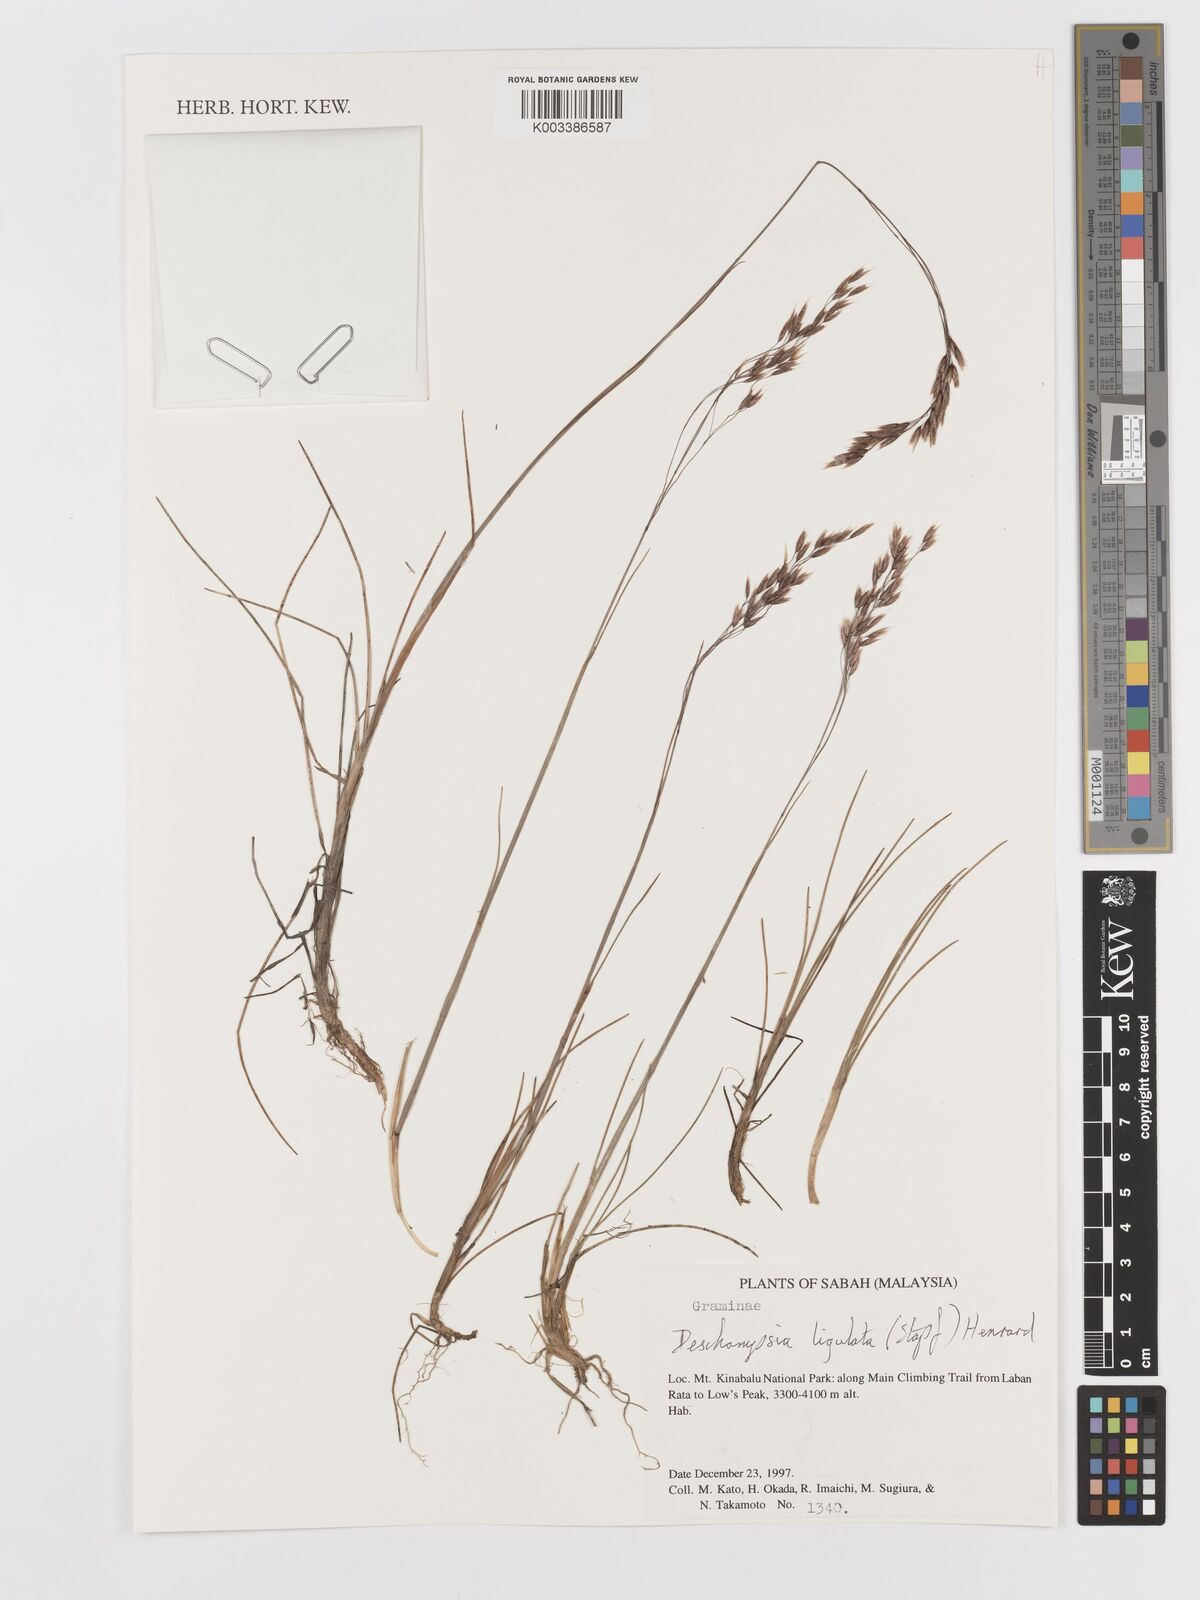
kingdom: Plantae
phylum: Tracheophyta
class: Liliopsida
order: Poales
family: Poaceae
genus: Avenella
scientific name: Avenella flexuosa
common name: Wavy hairgrass
